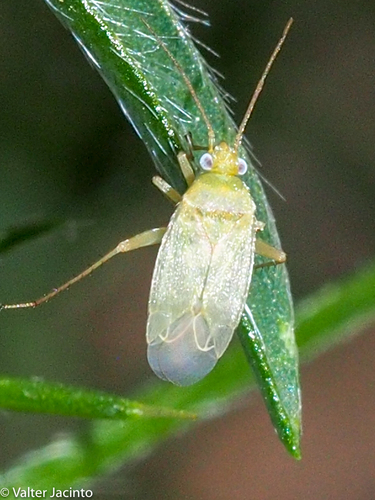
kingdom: Animalia
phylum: Arthropoda
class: Insecta
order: Hemiptera
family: Miridae
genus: Asciodema
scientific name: Asciodema obsoleta
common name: Plant bug
